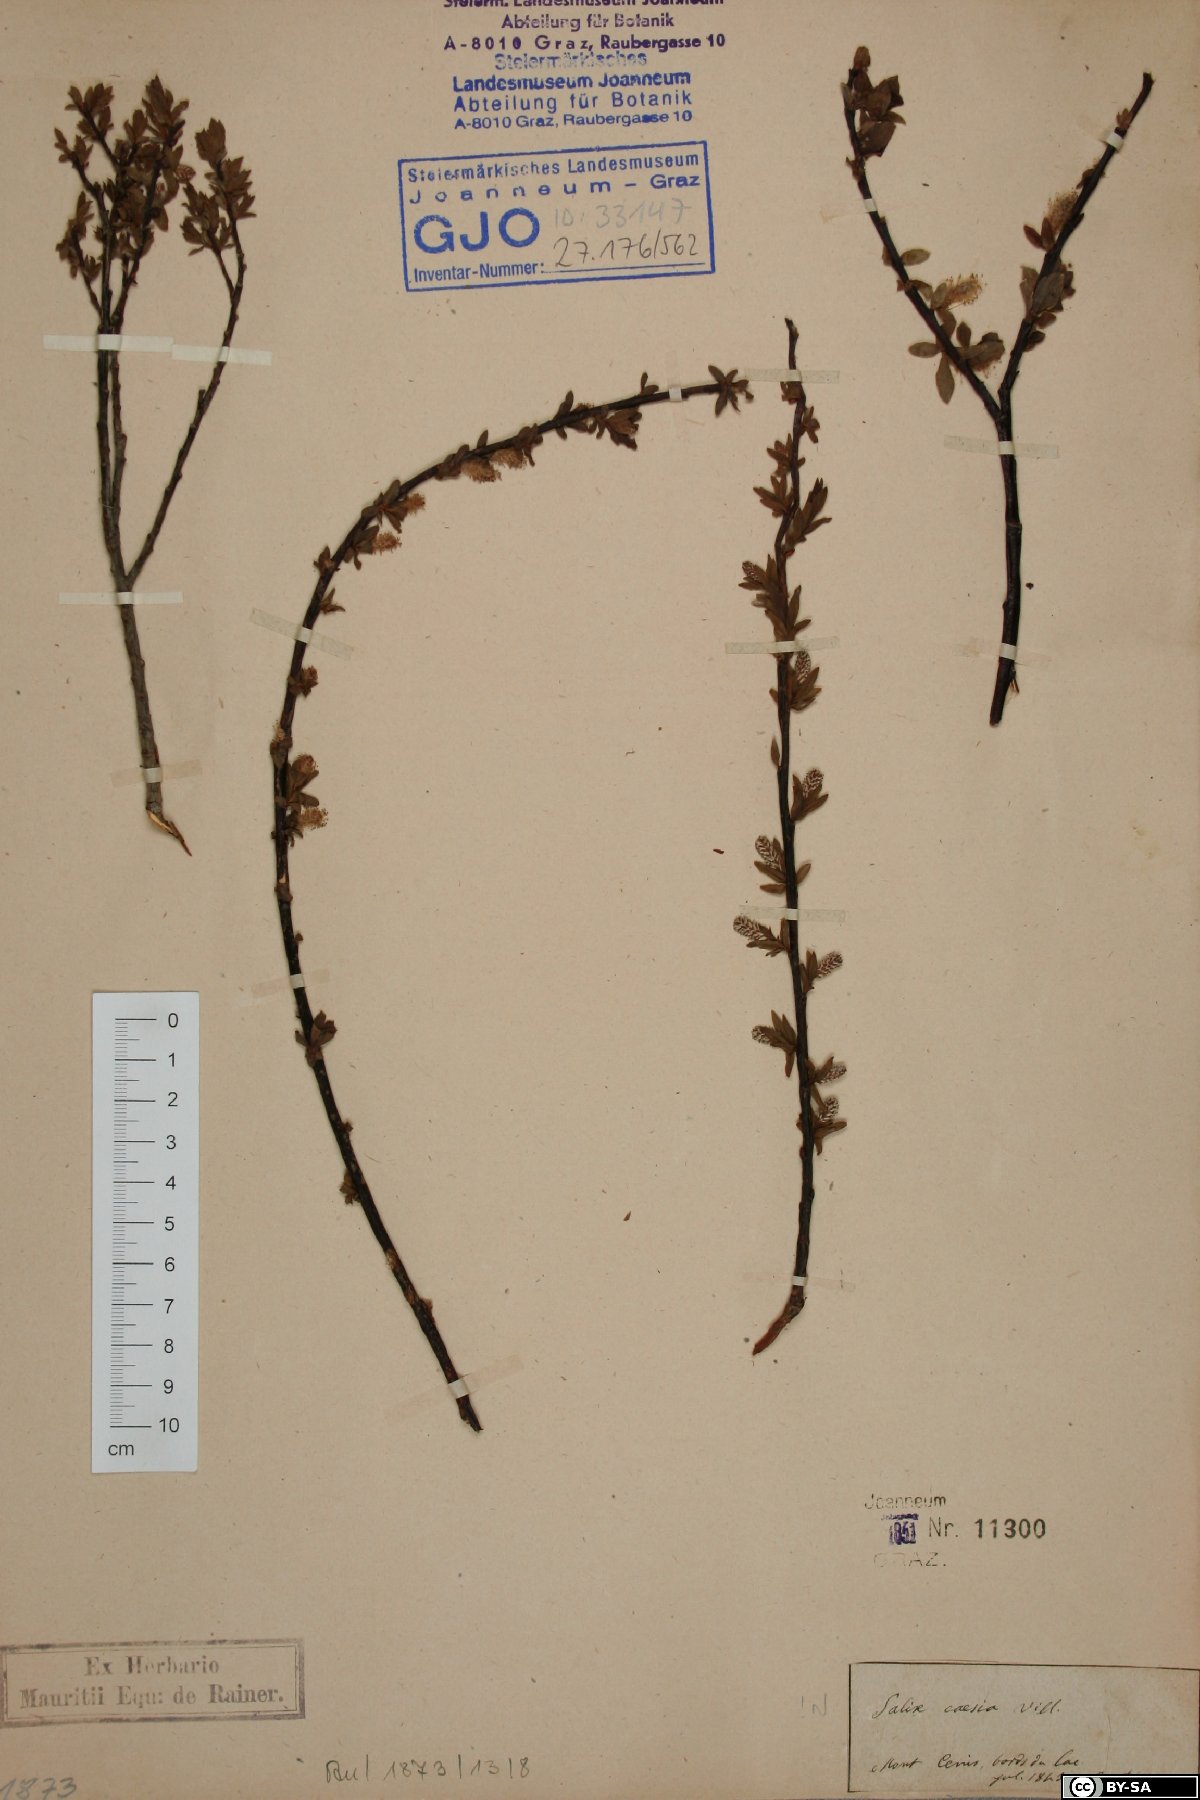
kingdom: Plantae
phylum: Tracheophyta
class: Magnoliopsida
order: Malpighiales
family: Salicaceae
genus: Salix
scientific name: Salix caesia
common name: Blue willow
